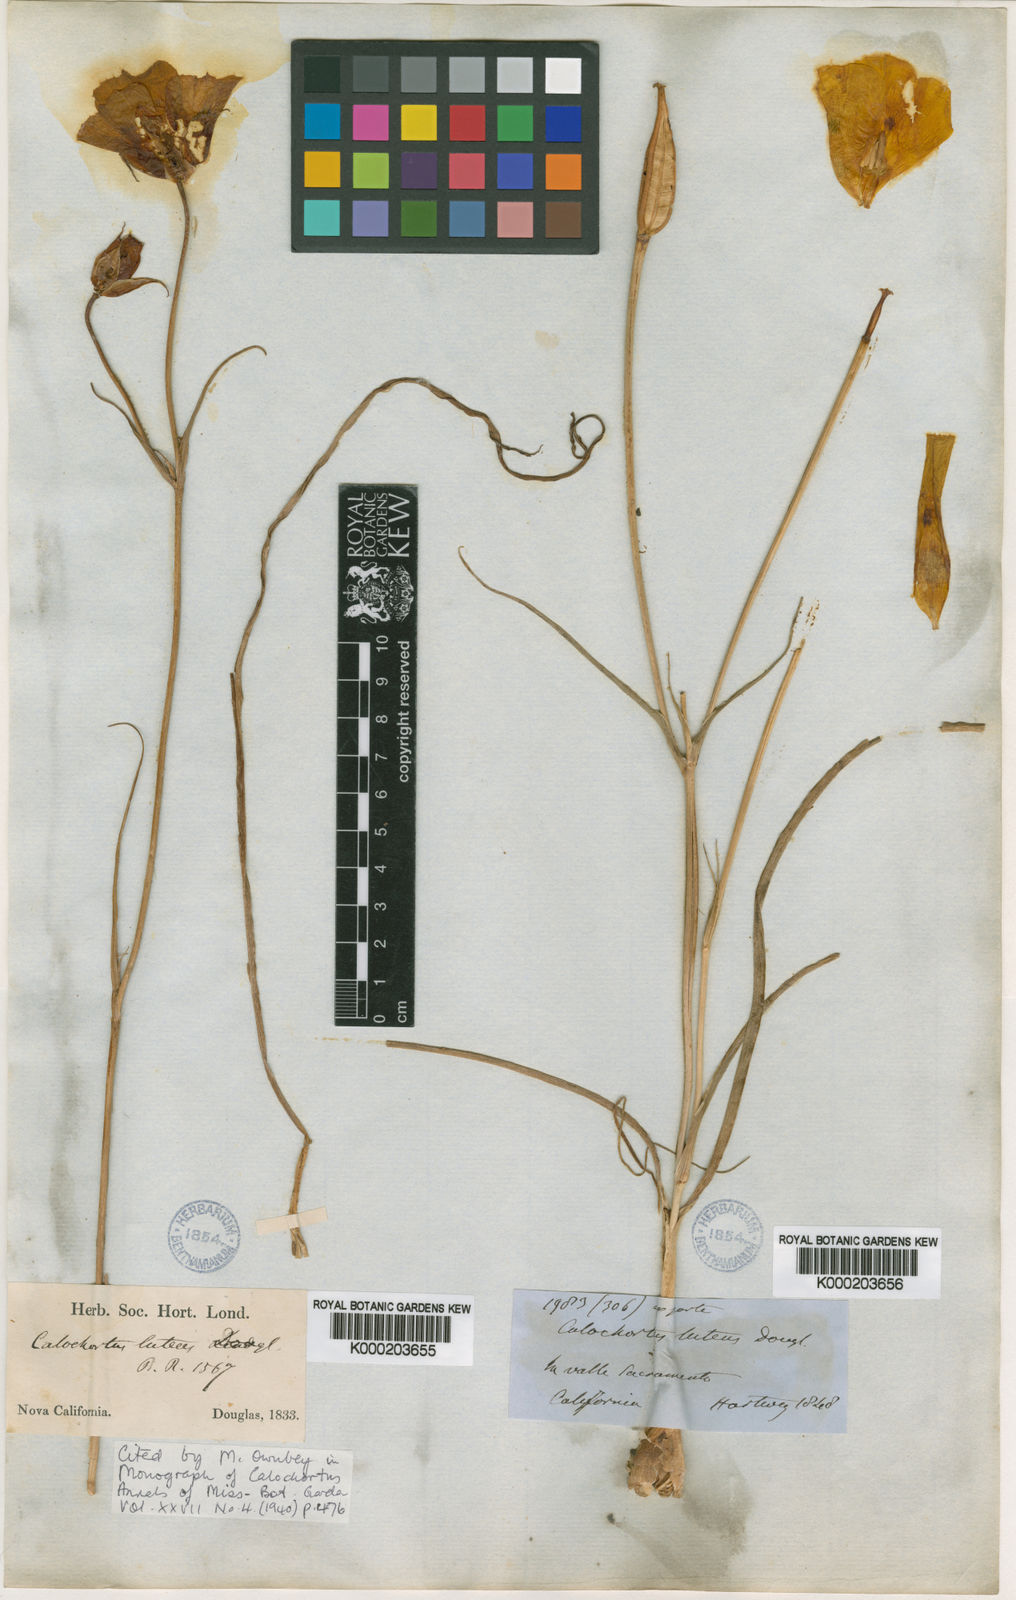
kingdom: Plantae
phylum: Tracheophyta
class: Liliopsida
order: Liliales
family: Liliaceae
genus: Calochortus
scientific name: Calochortus luteus
